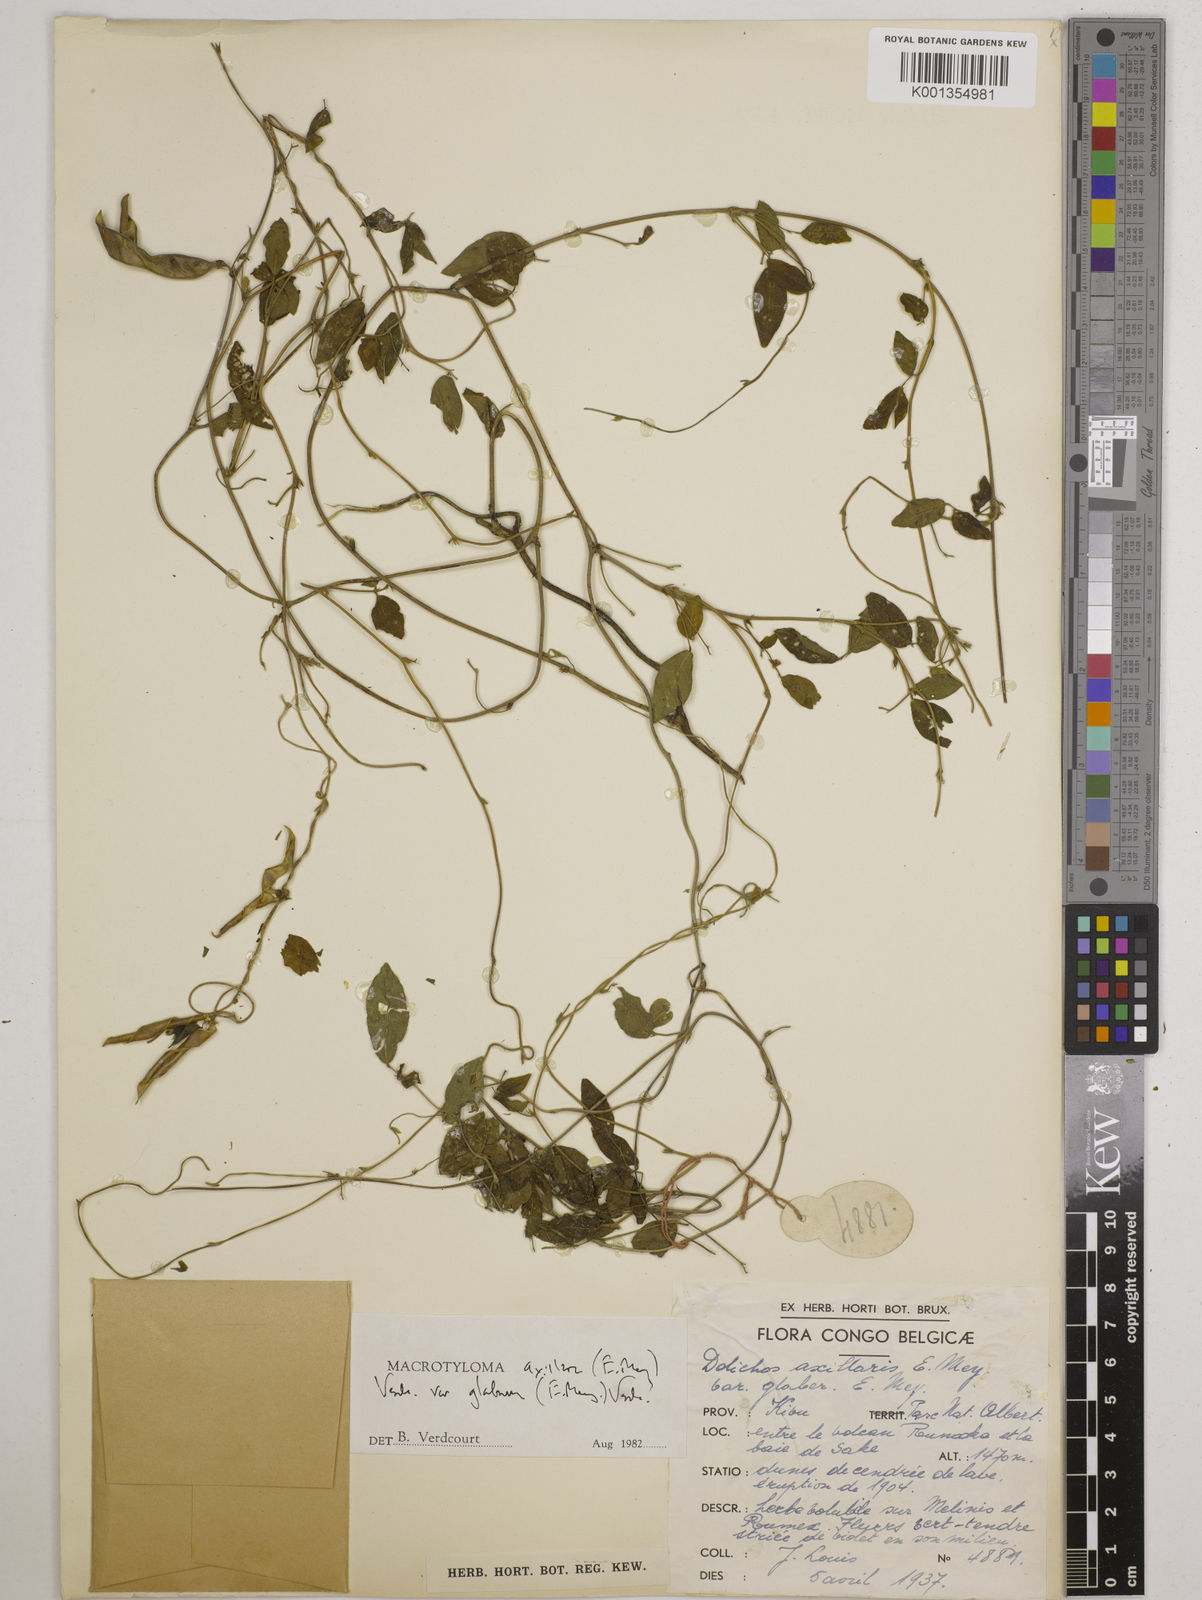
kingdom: Plantae
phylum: Tracheophyta
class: Magnoliopsida
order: Fabales
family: Fabaceae
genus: Macrotyloma
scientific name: Macrotyloma
